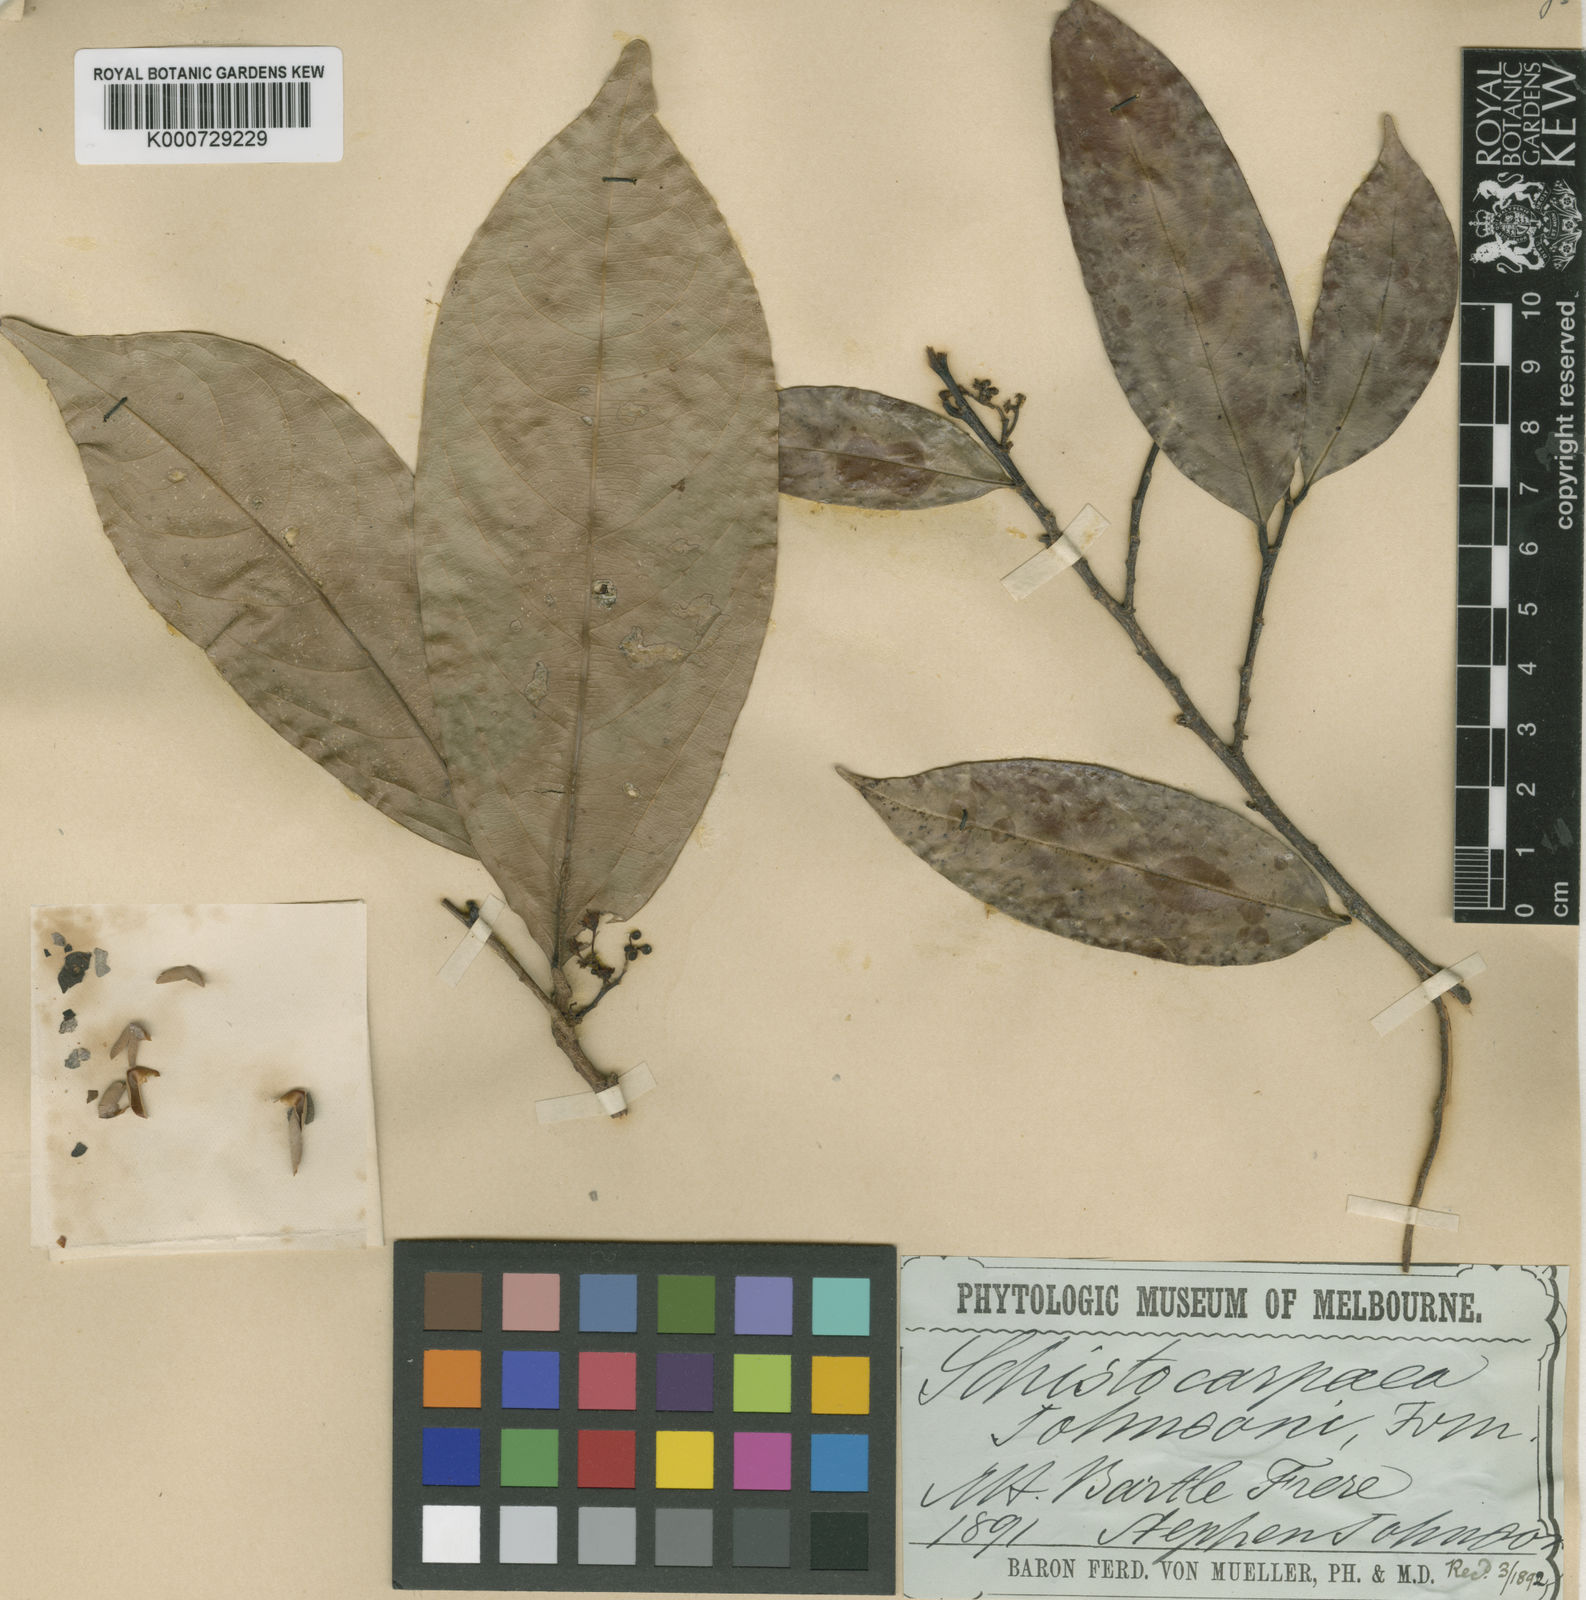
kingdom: Plantae
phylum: Tracheophyta
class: Magnoliopsida
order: Rosales
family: Rhamnaceae
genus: Schistocarpaea
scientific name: Schistocarpaea johnsonii
